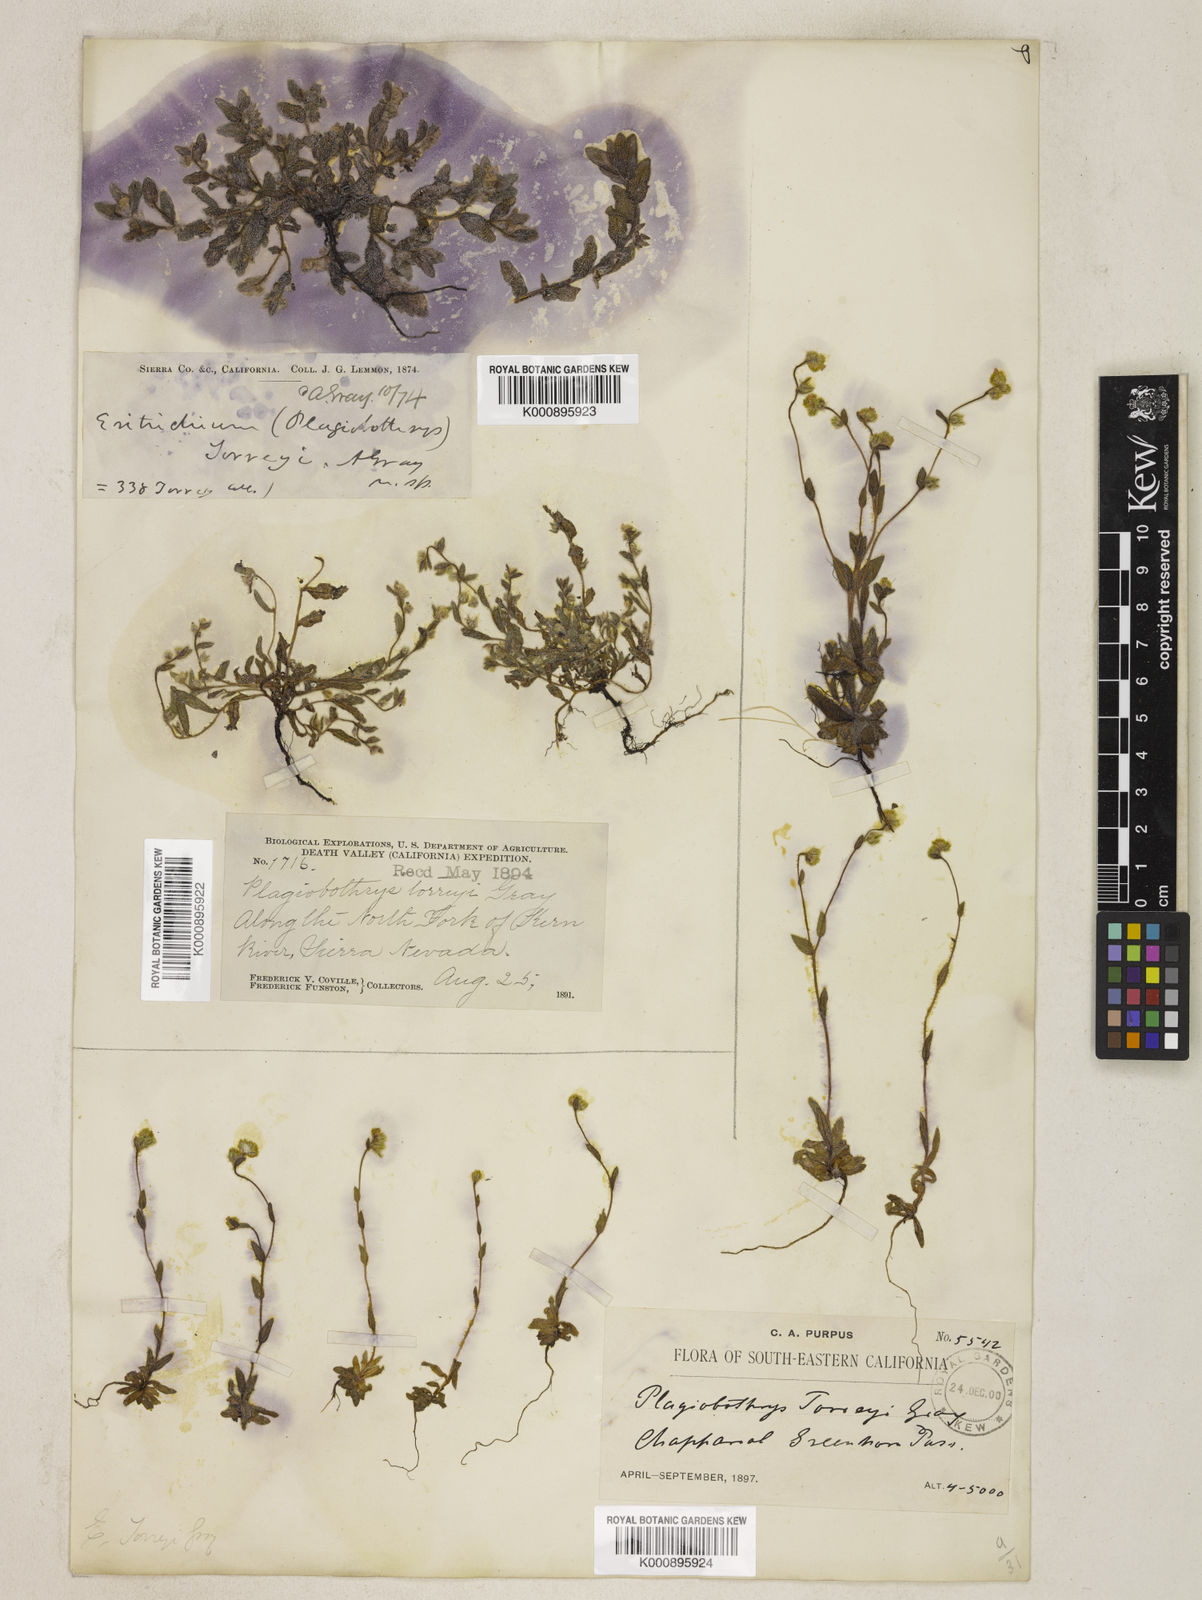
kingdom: Plantae
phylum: Tracheophyta
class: Magnoliopsida
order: Boraginales
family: Boraginaceae
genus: Plagiobothrys
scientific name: Plagiobothrys torreyi
